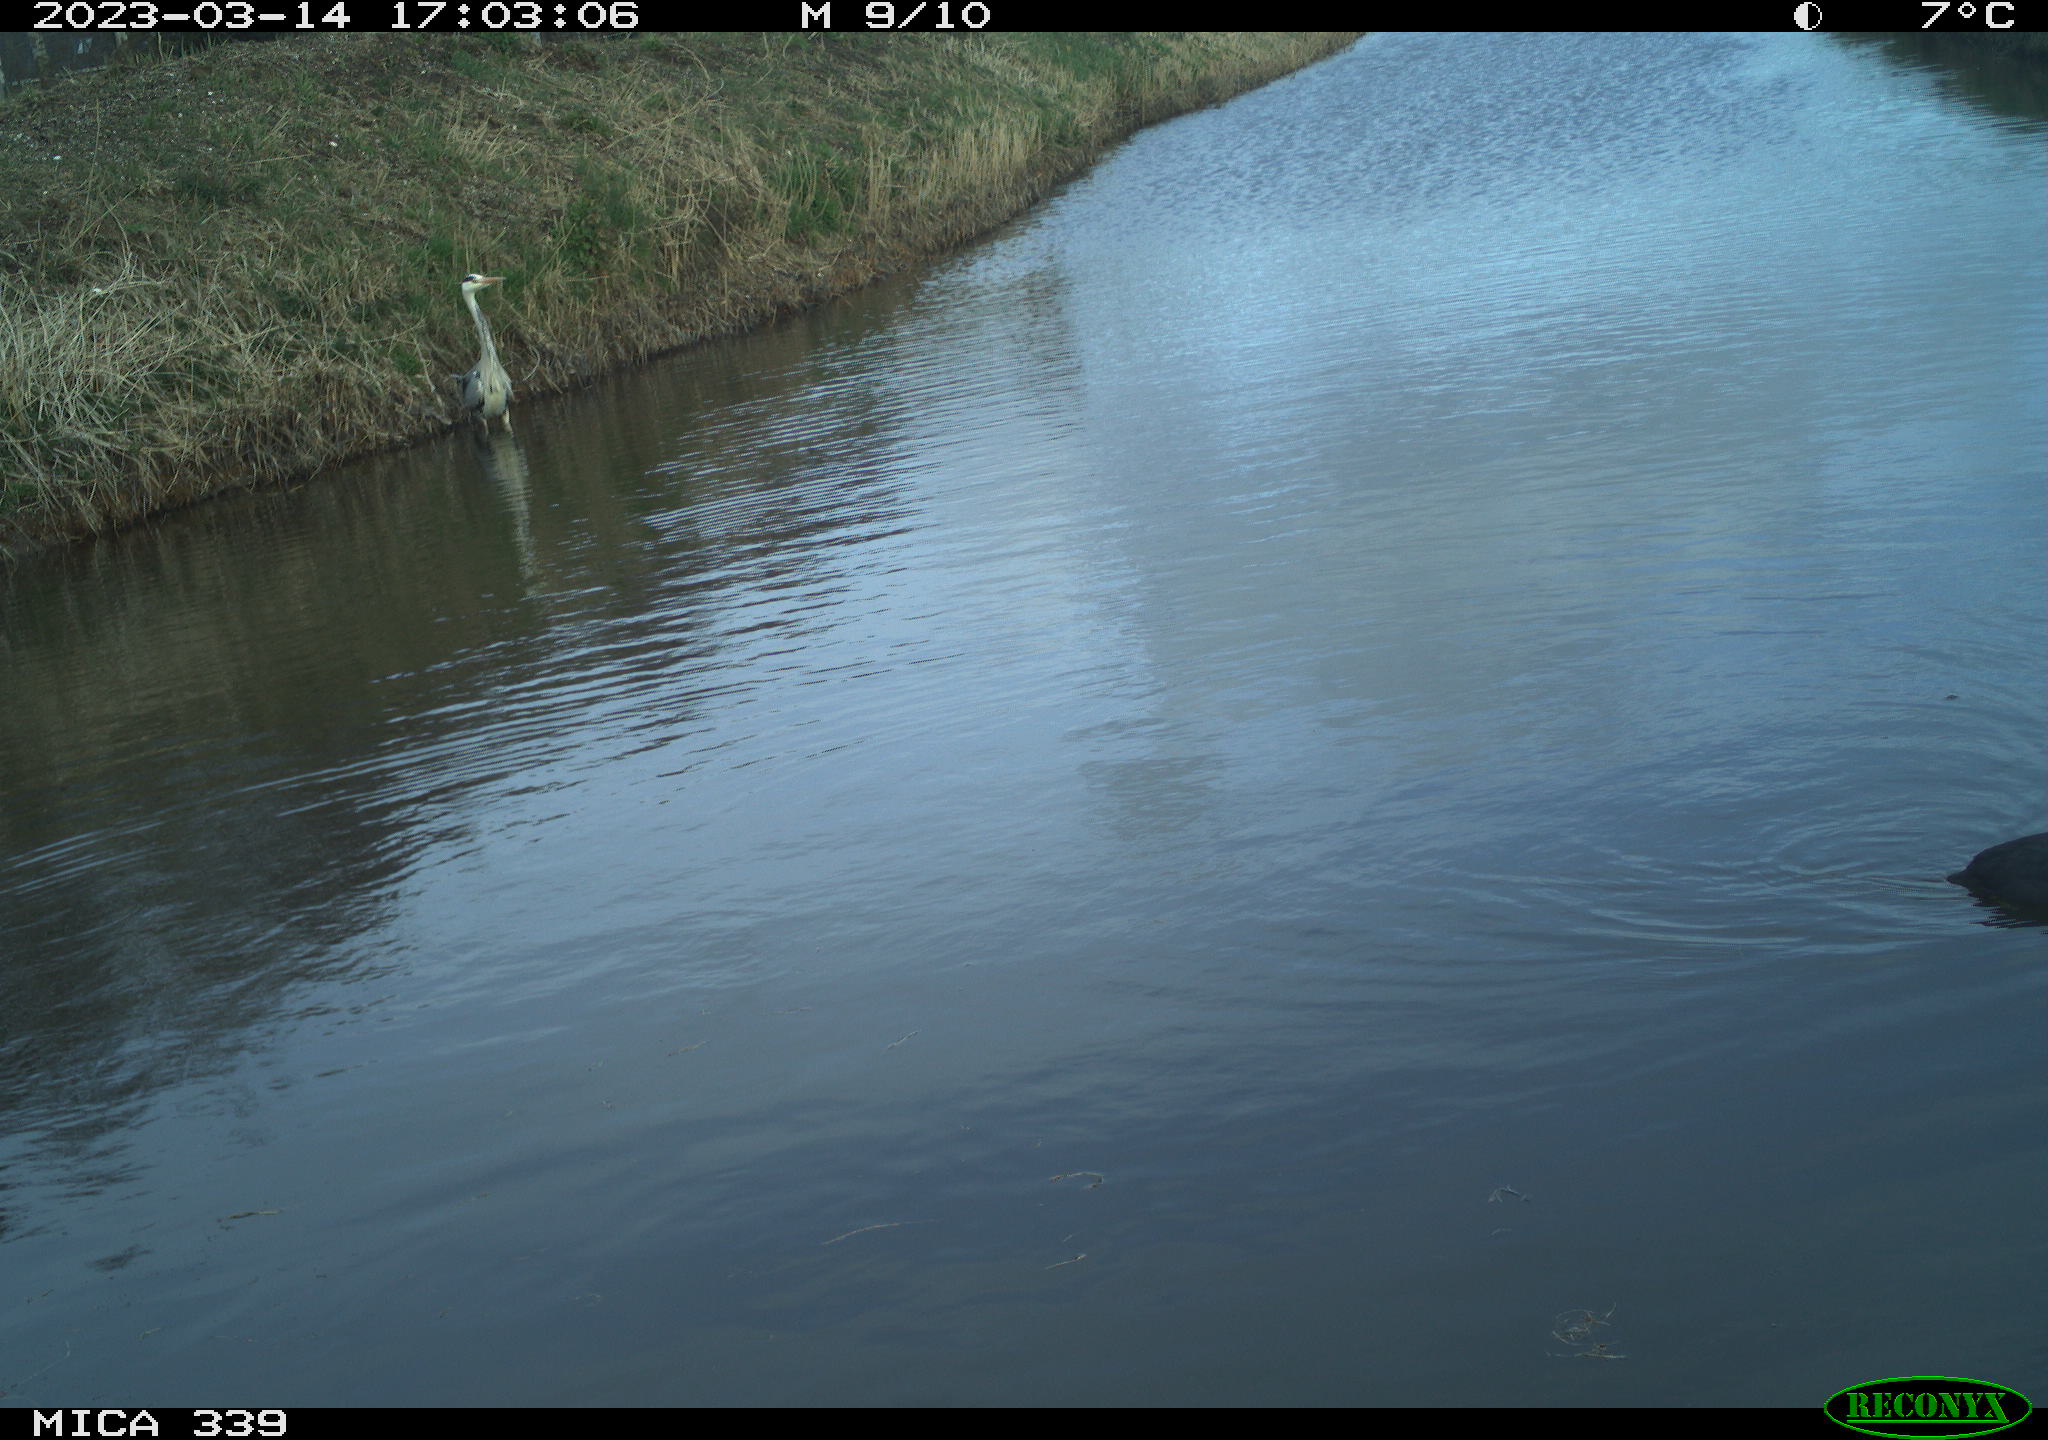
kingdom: Animalia
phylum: Chordata
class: Aves
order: Pelecaniformes
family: Ardeidae
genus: Ardea
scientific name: Ardea cinerea
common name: Grey heron
